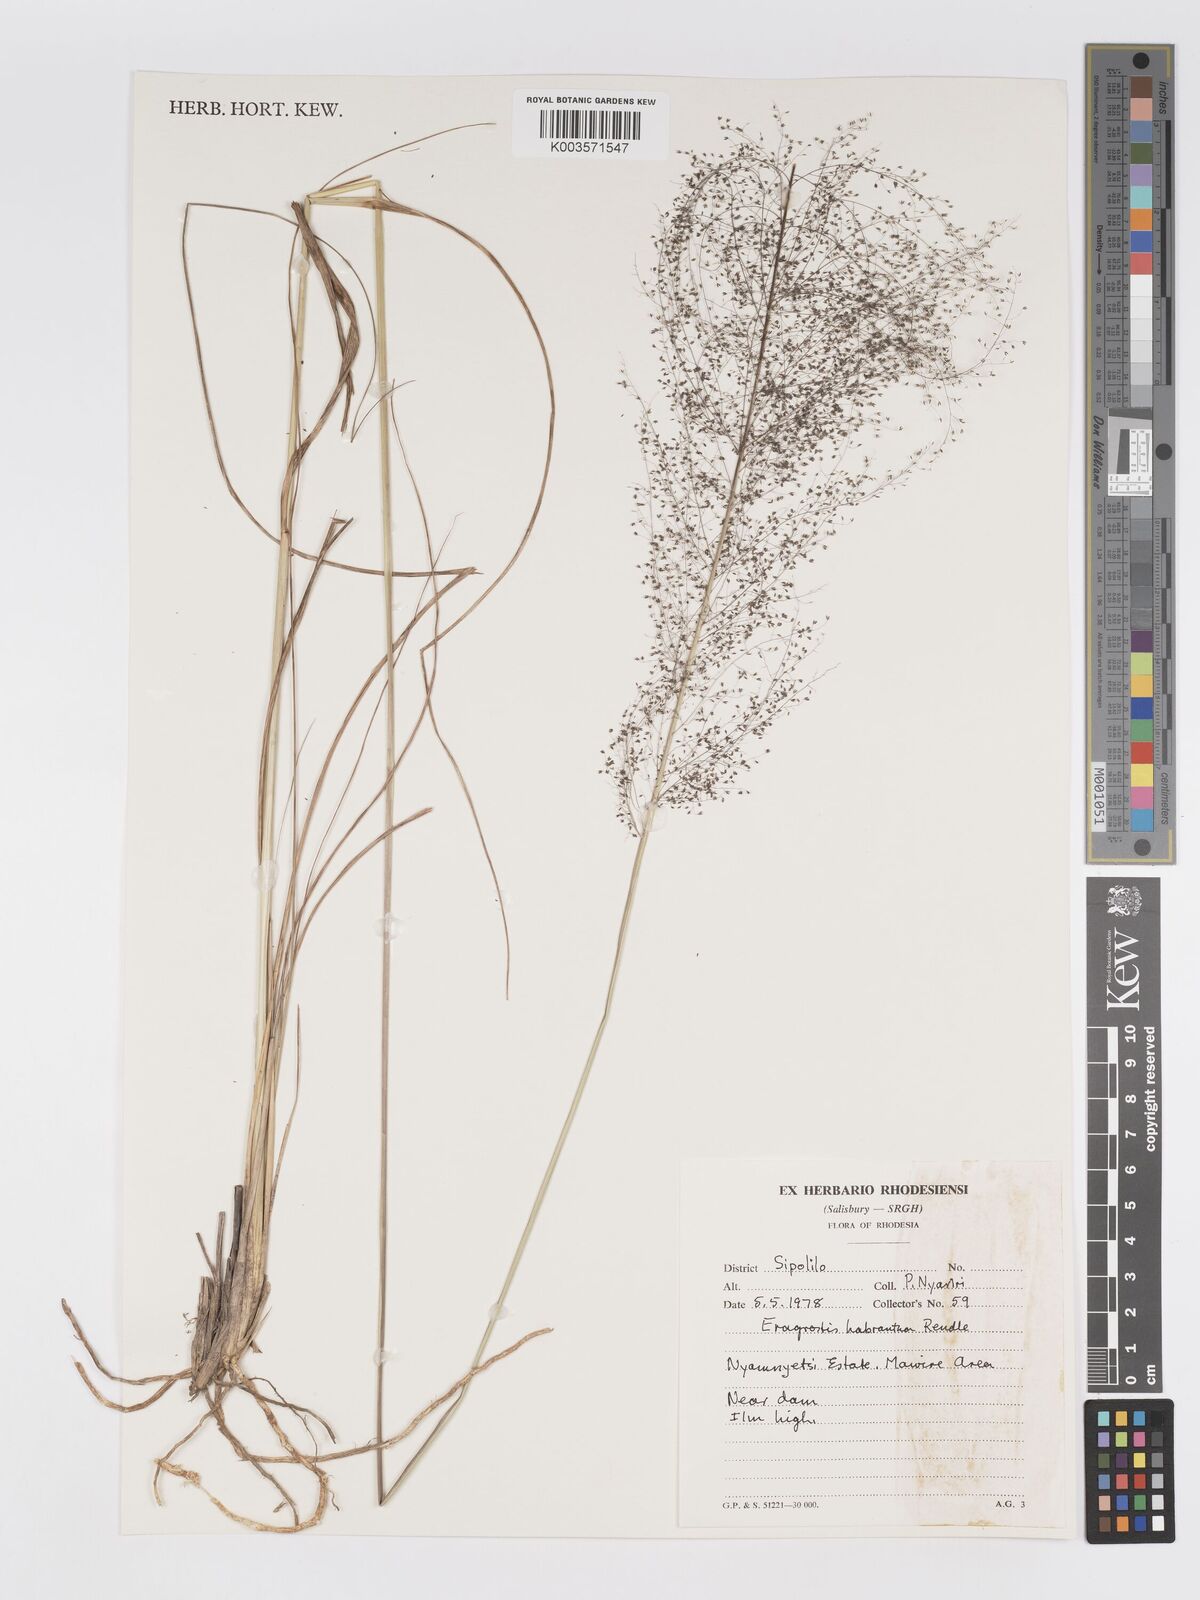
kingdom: Plantae
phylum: Tracheophyta
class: Liliopsida
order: Poales
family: Poaceae
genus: Eragrostis
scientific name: Eragrostis habrantha
